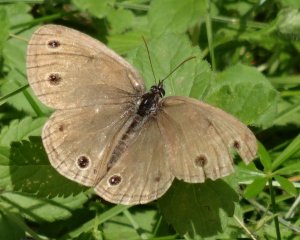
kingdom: Animalia
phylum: Arthropoda
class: Insecta
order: Lepidoptera
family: Nymphalidae
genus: Euptychia
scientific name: Euptychia cymela
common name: Little Wood Satyr
